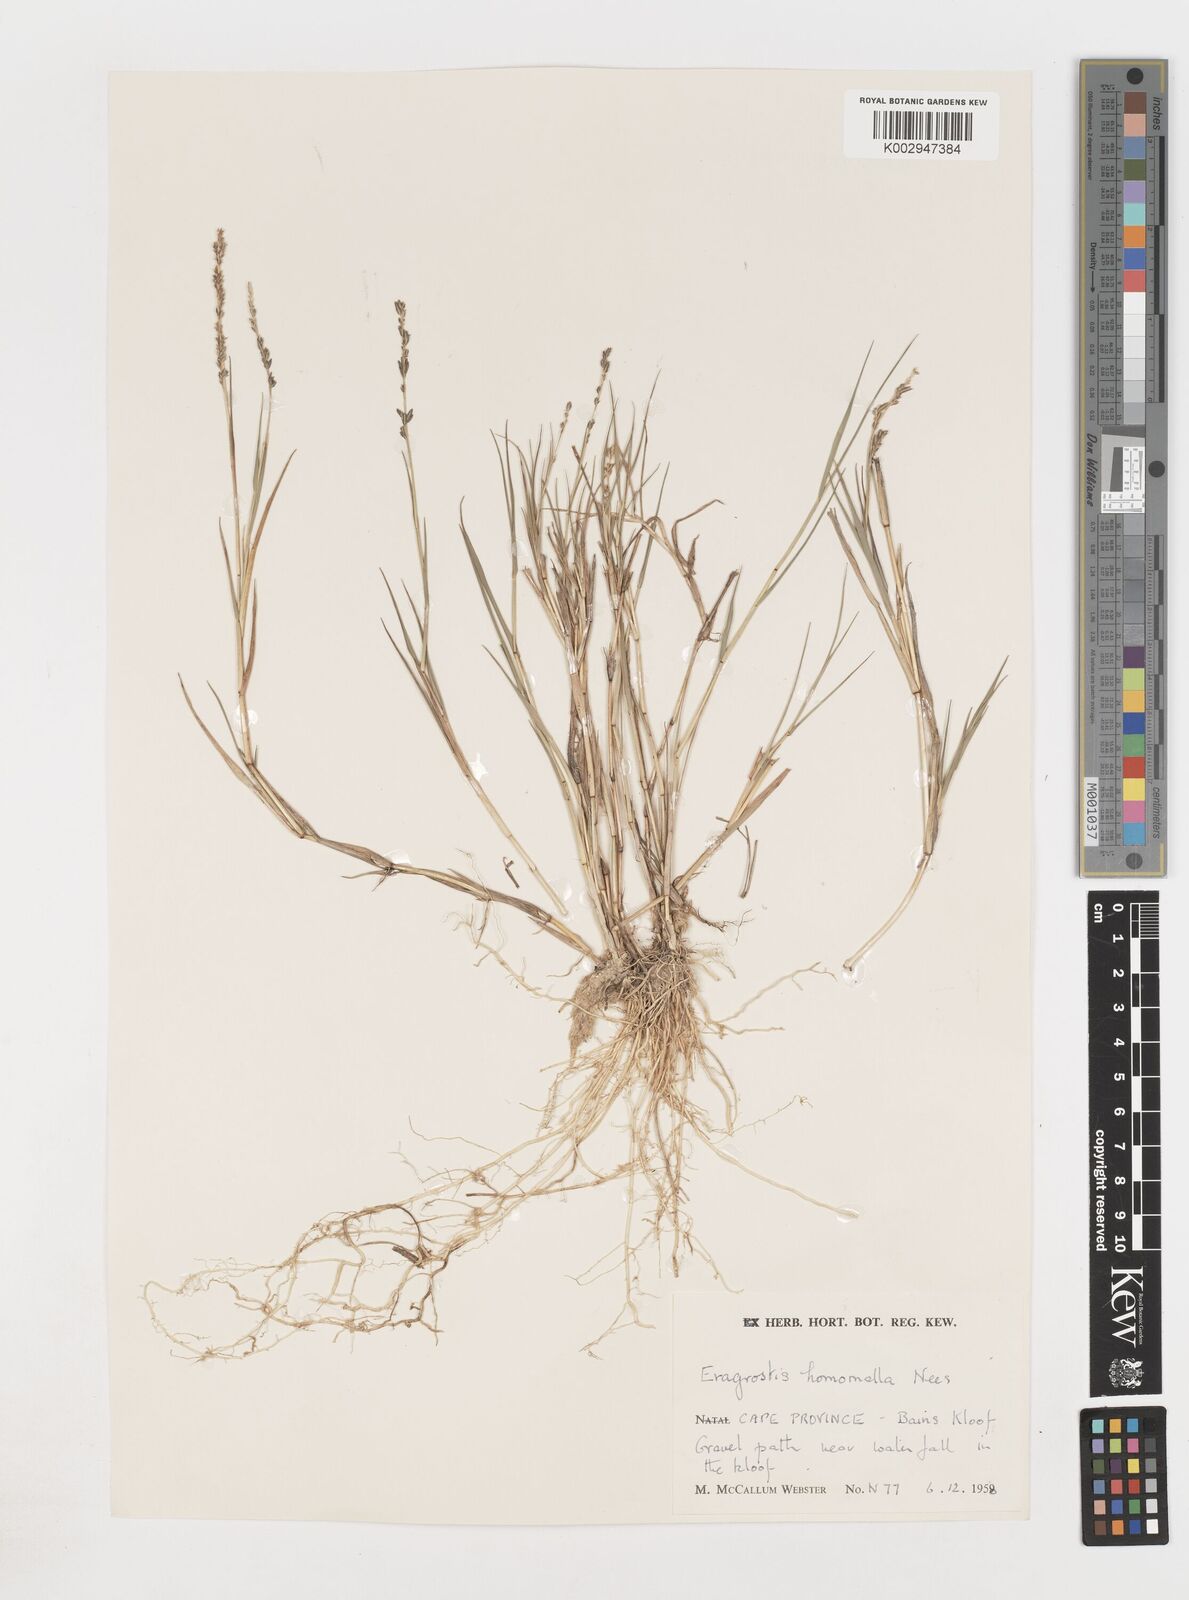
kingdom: Plantae
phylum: Tracheophyta
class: Liliopsida
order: Poales
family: Poaceae
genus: Eragrostis
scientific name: Eragrostis
